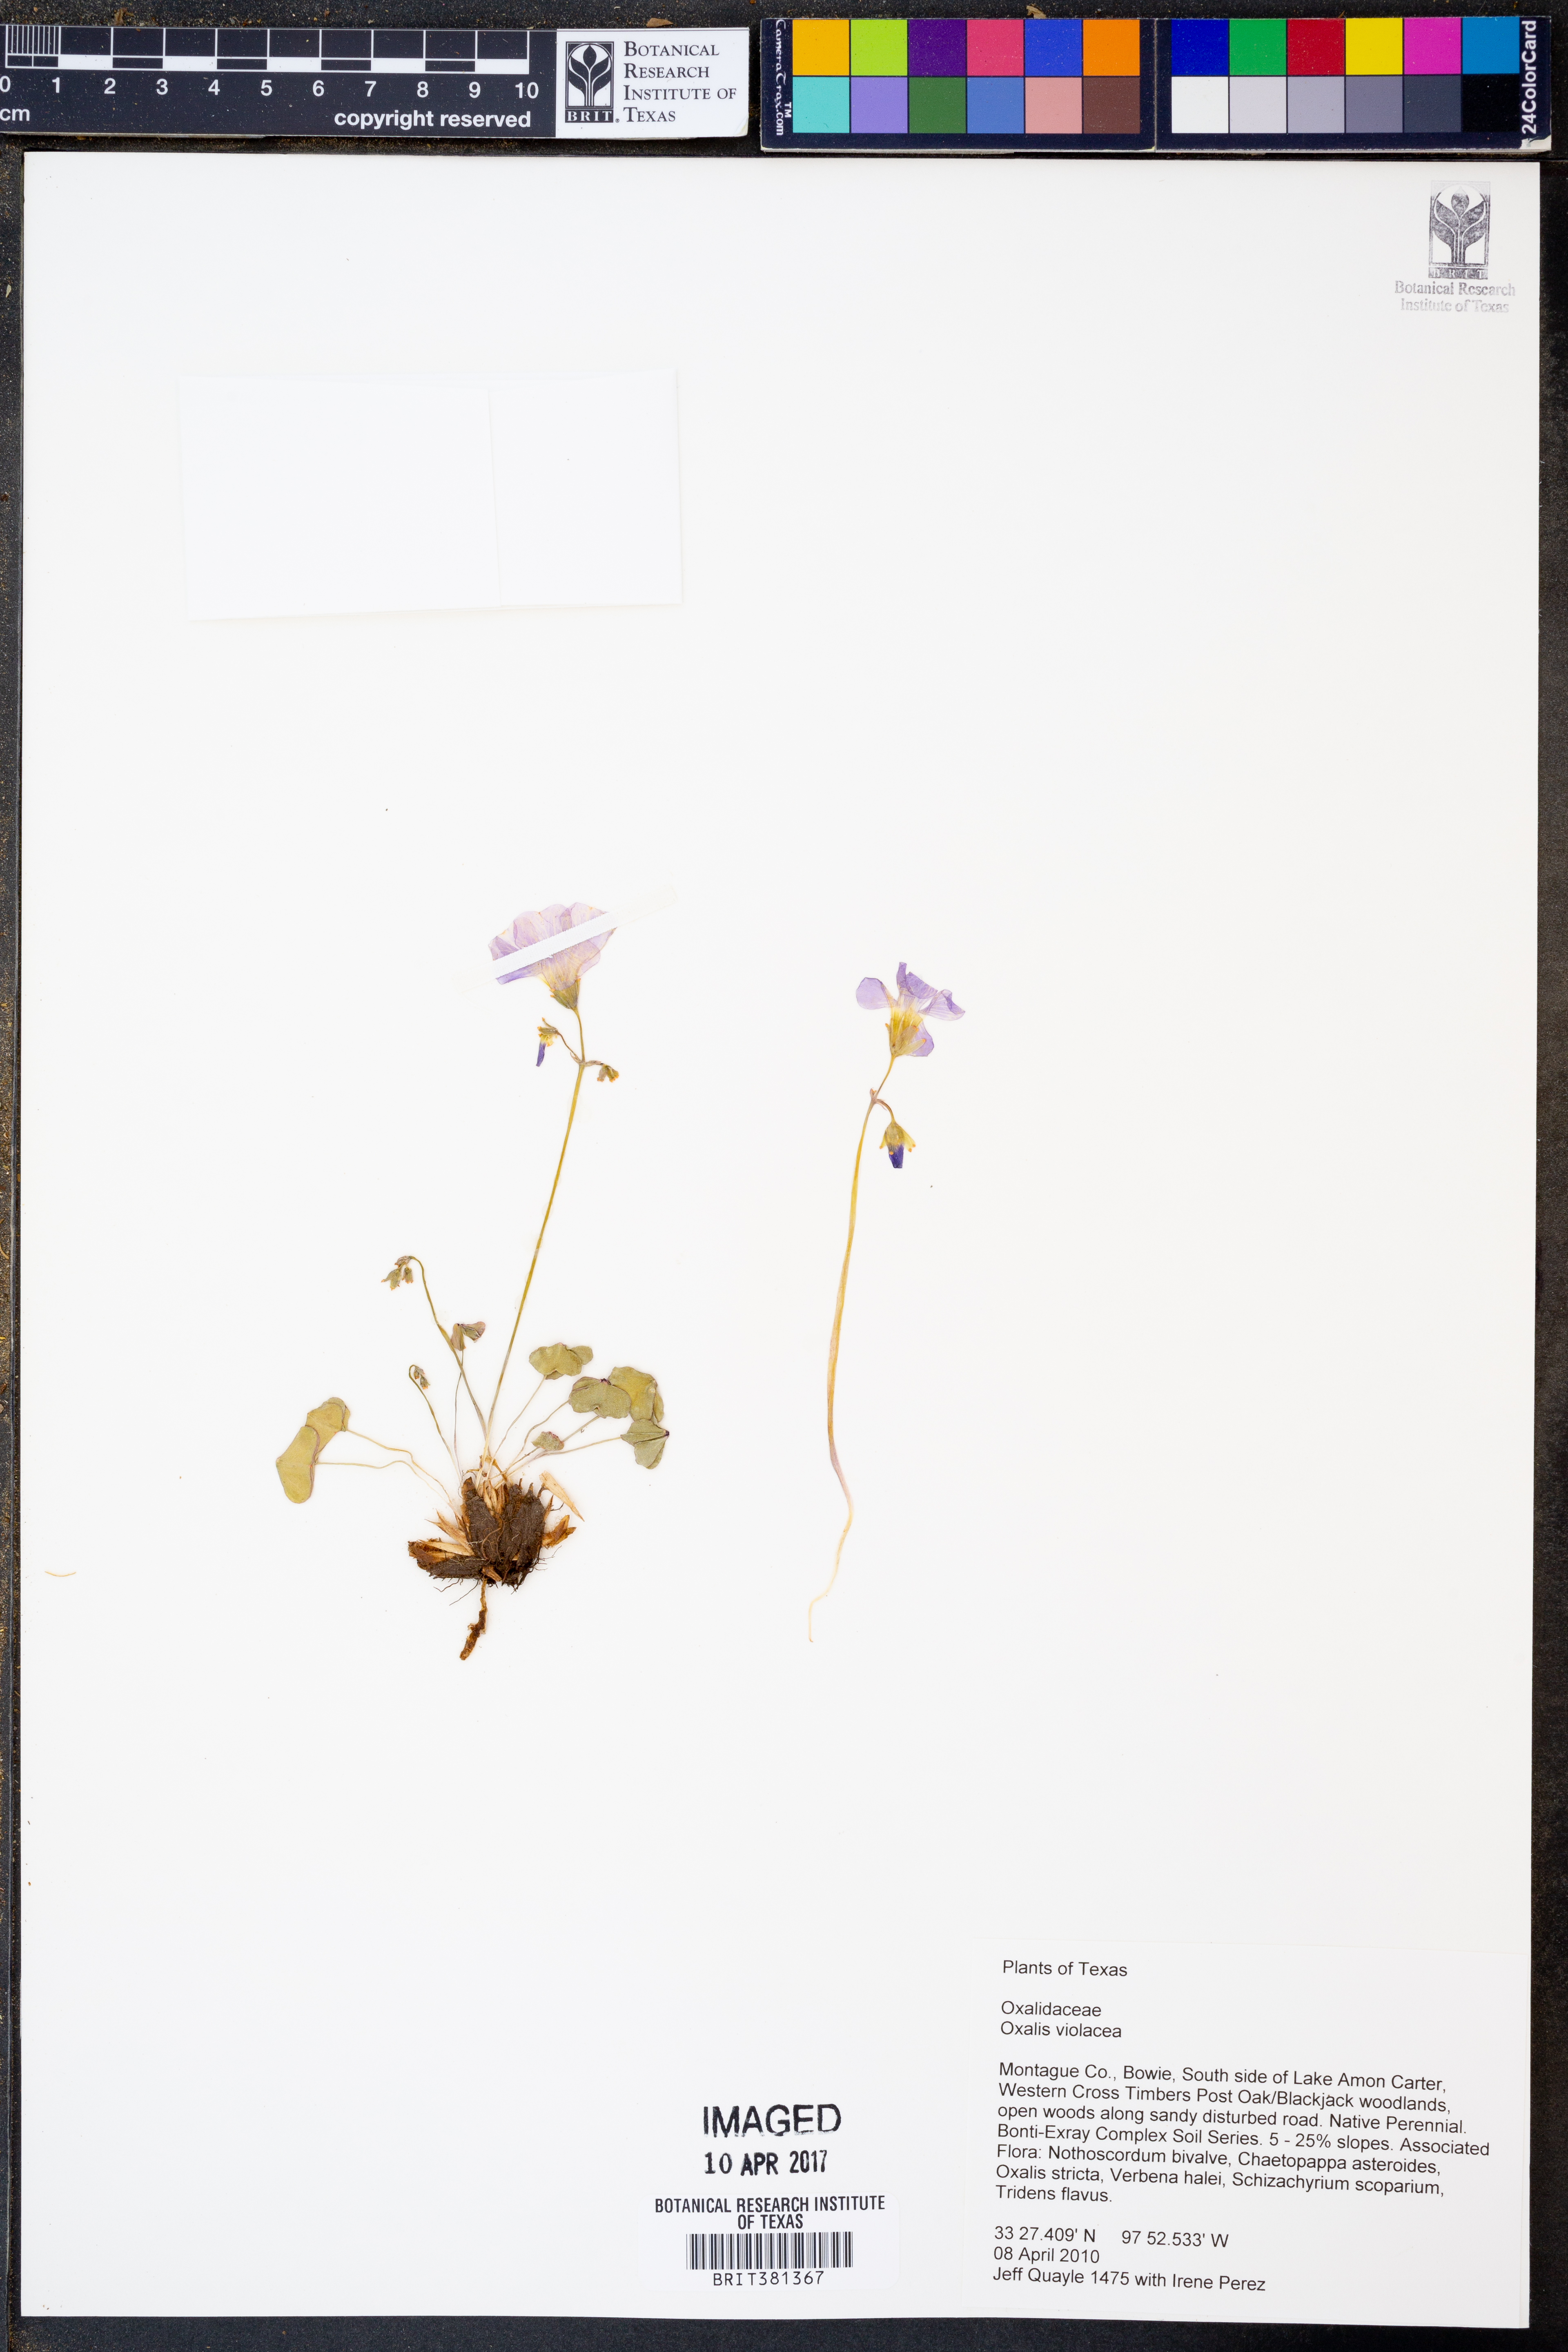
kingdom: Plantae
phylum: Tracheophyta
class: Magnoliopsida
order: Oxalidales
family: Oxalidaceae
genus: Oxalis
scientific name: Oxalis violacea
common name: Violet wood-sorrel
